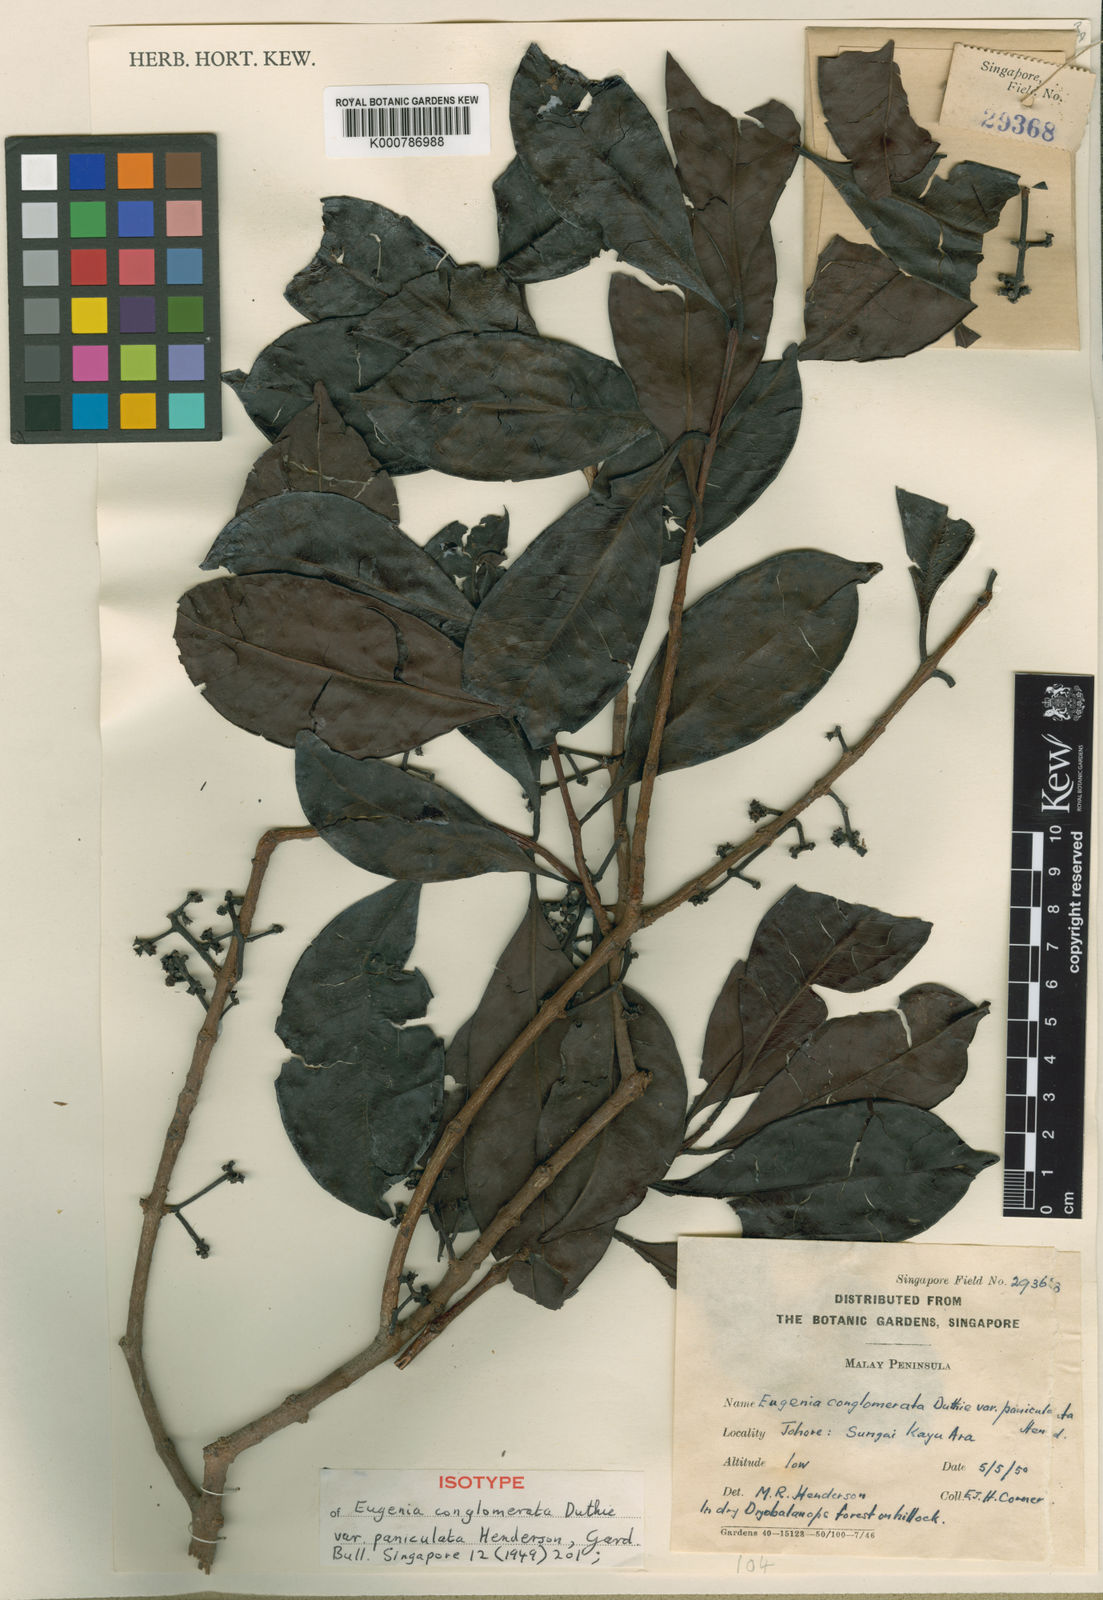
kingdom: Plantae
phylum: Tracheophyta
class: Magnoliopsida
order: Myrtales
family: Myrtaceae
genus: Syzygium
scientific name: Syzygium conglomeratum
